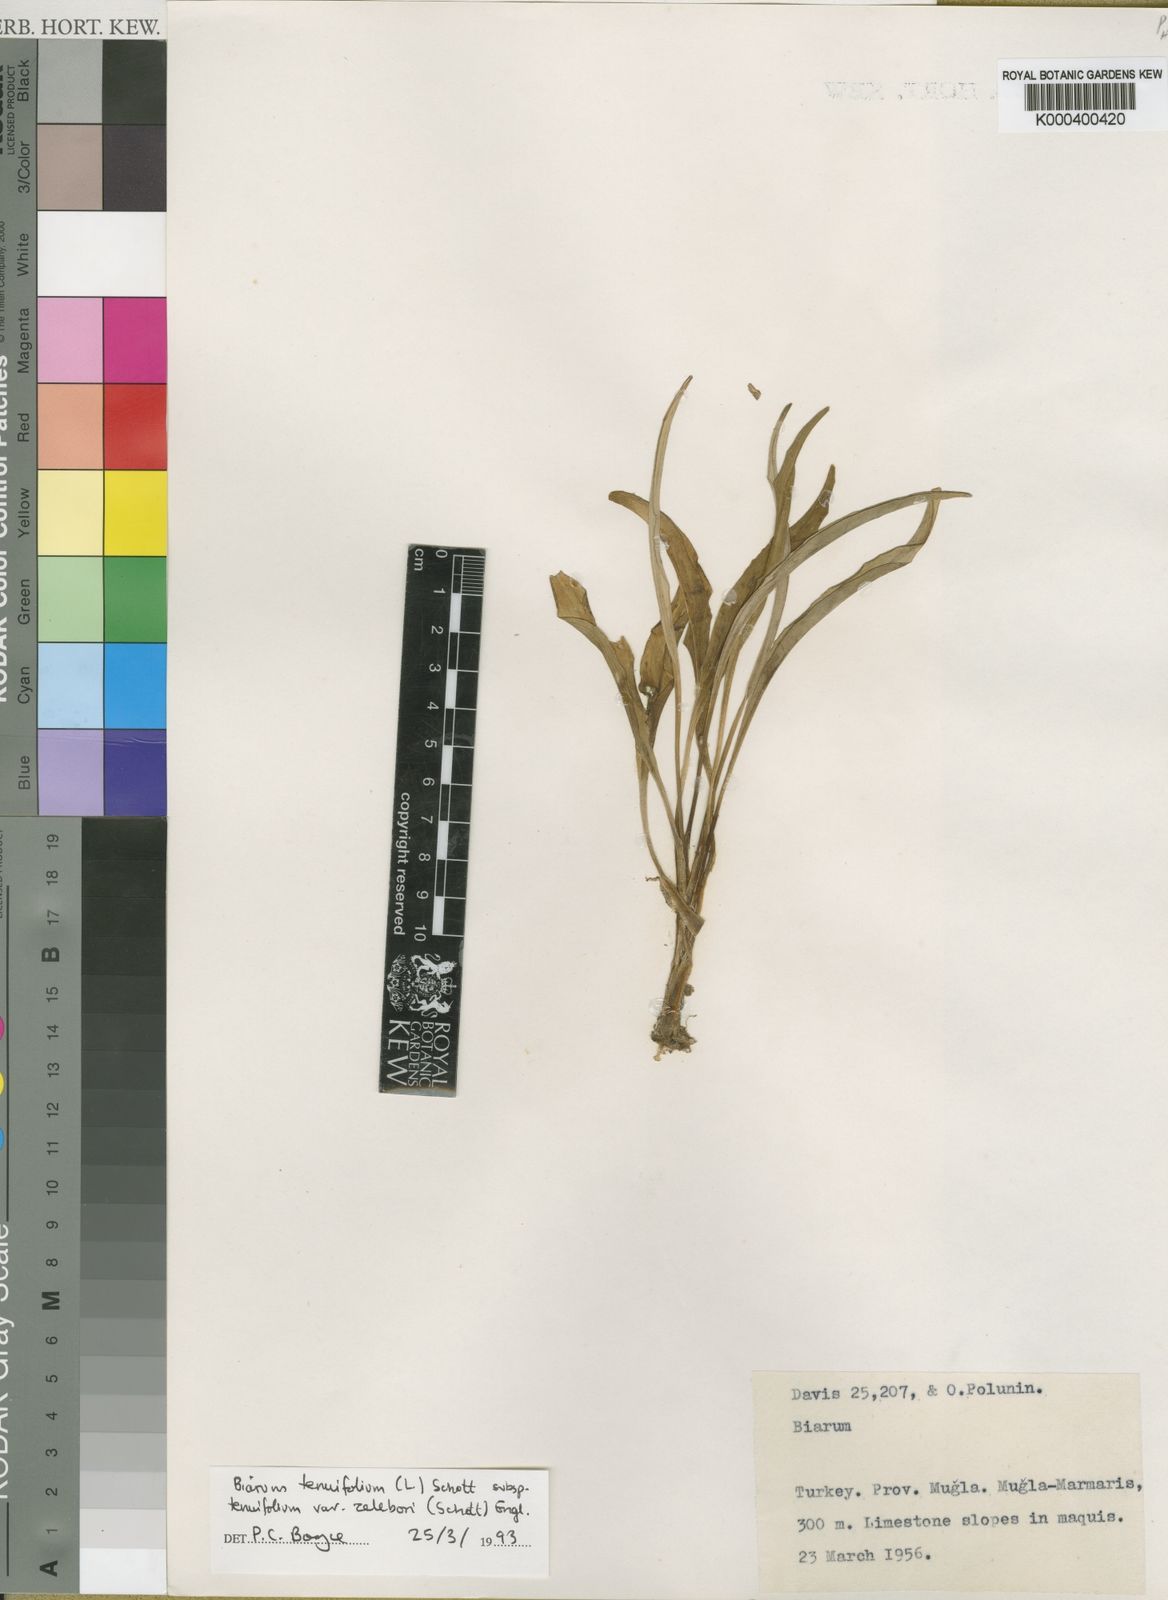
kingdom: Plantae
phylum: Tracheophyta
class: Liliopsida
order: Alismatales
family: Araceae
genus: Biarum
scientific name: Biarum tenuifolium
